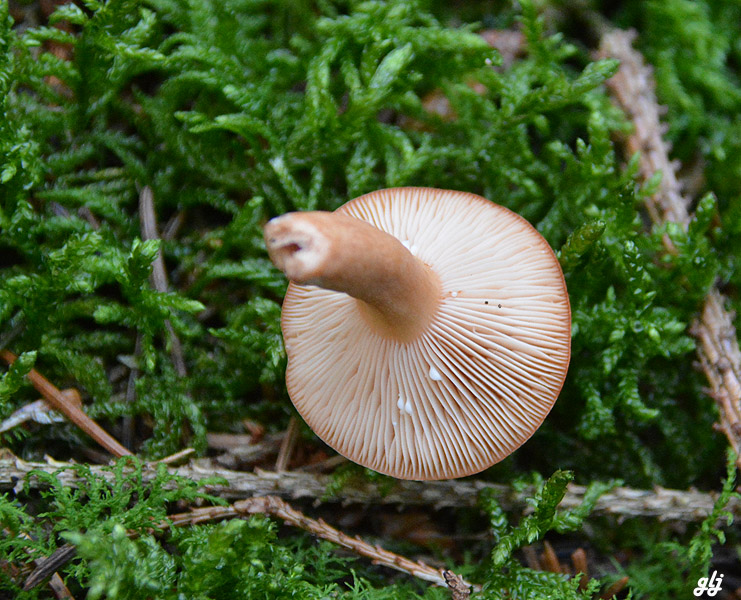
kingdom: Fungi
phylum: Basidiomycota
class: Agaricomycetes
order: Russulales
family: Russulaceae
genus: Lactarius
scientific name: Lactarius tabidus
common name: rynket mælkehat
